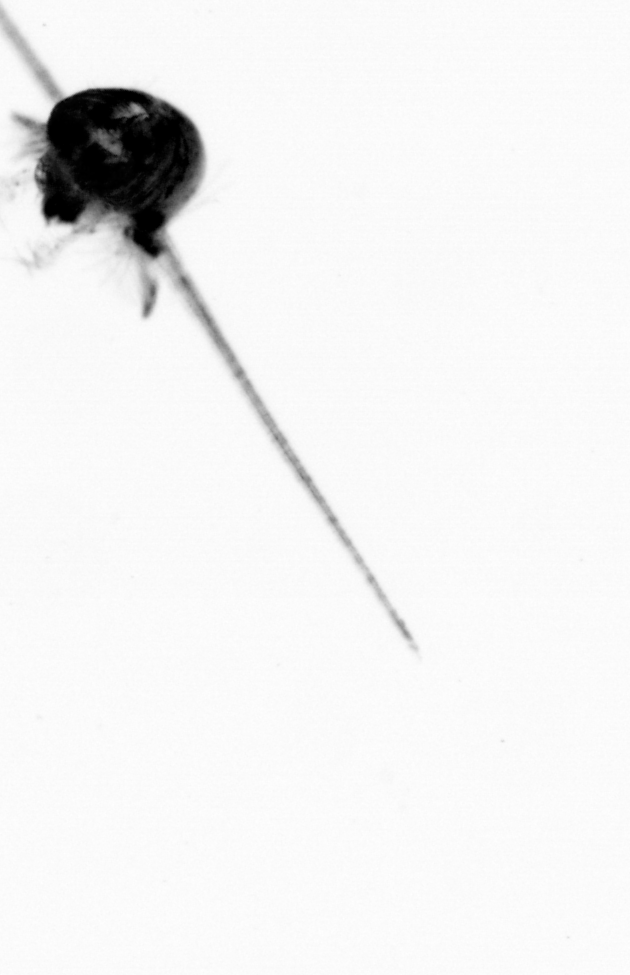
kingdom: Animalia
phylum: Arthropoda
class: Copepoda
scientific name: Copepoda
